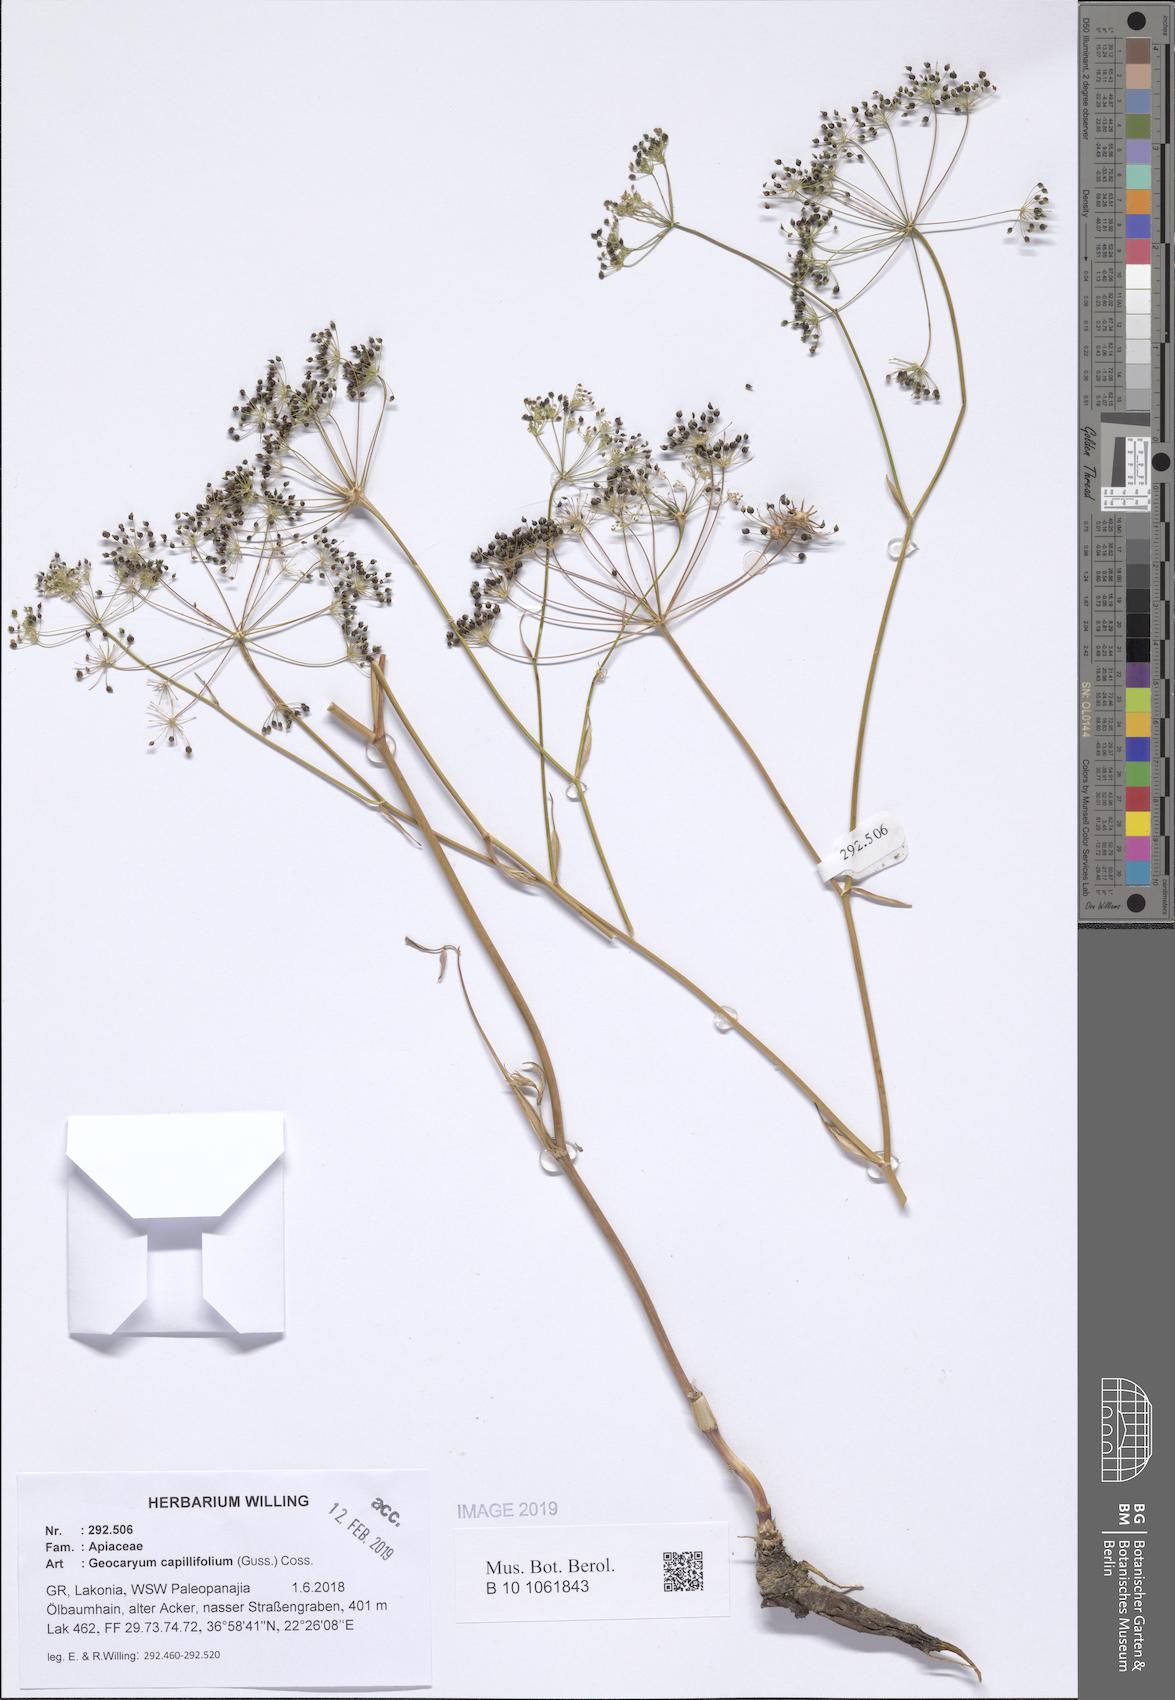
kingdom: Plantae
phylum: Tracheophyta
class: Magnoliopsida
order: Apiales
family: Apiaceae
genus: Geocaryum
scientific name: Geocaryum capillifolium
